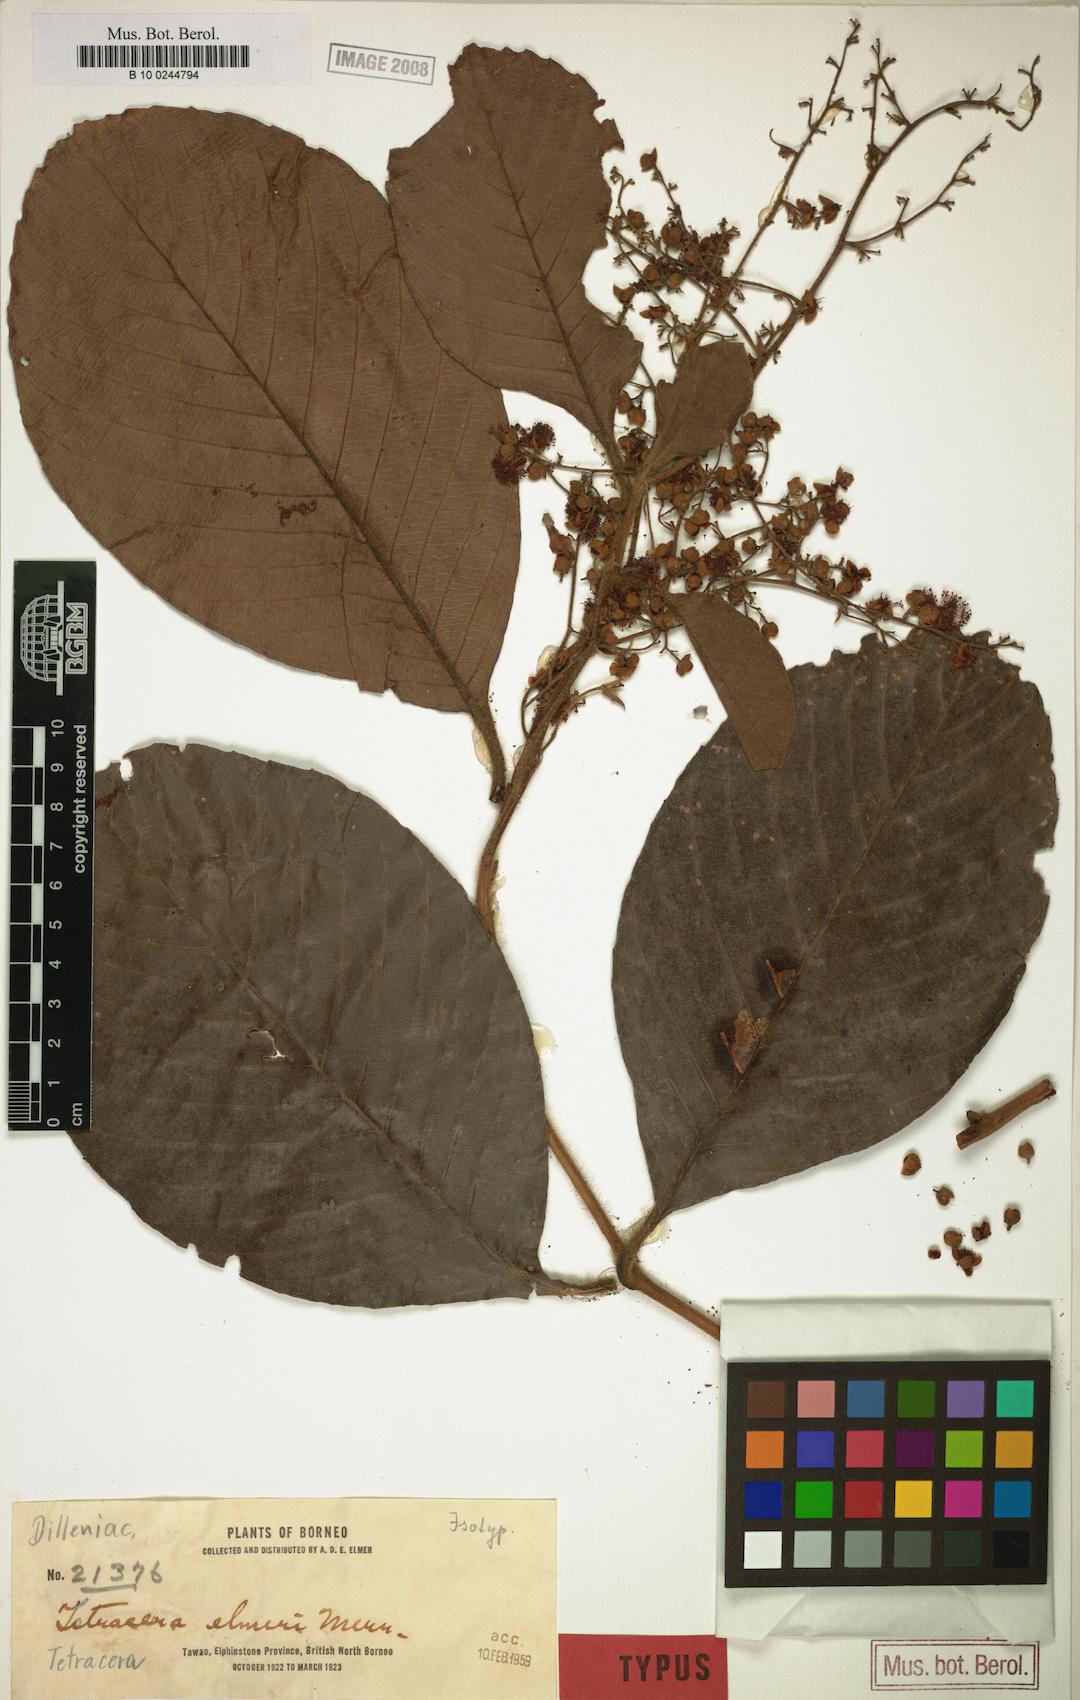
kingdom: Plantae
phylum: Tracheophyta
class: Magnoliopsida
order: Dilleniales
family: Dilleniaceae
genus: Tetracera
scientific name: Tetracera korthalsii
